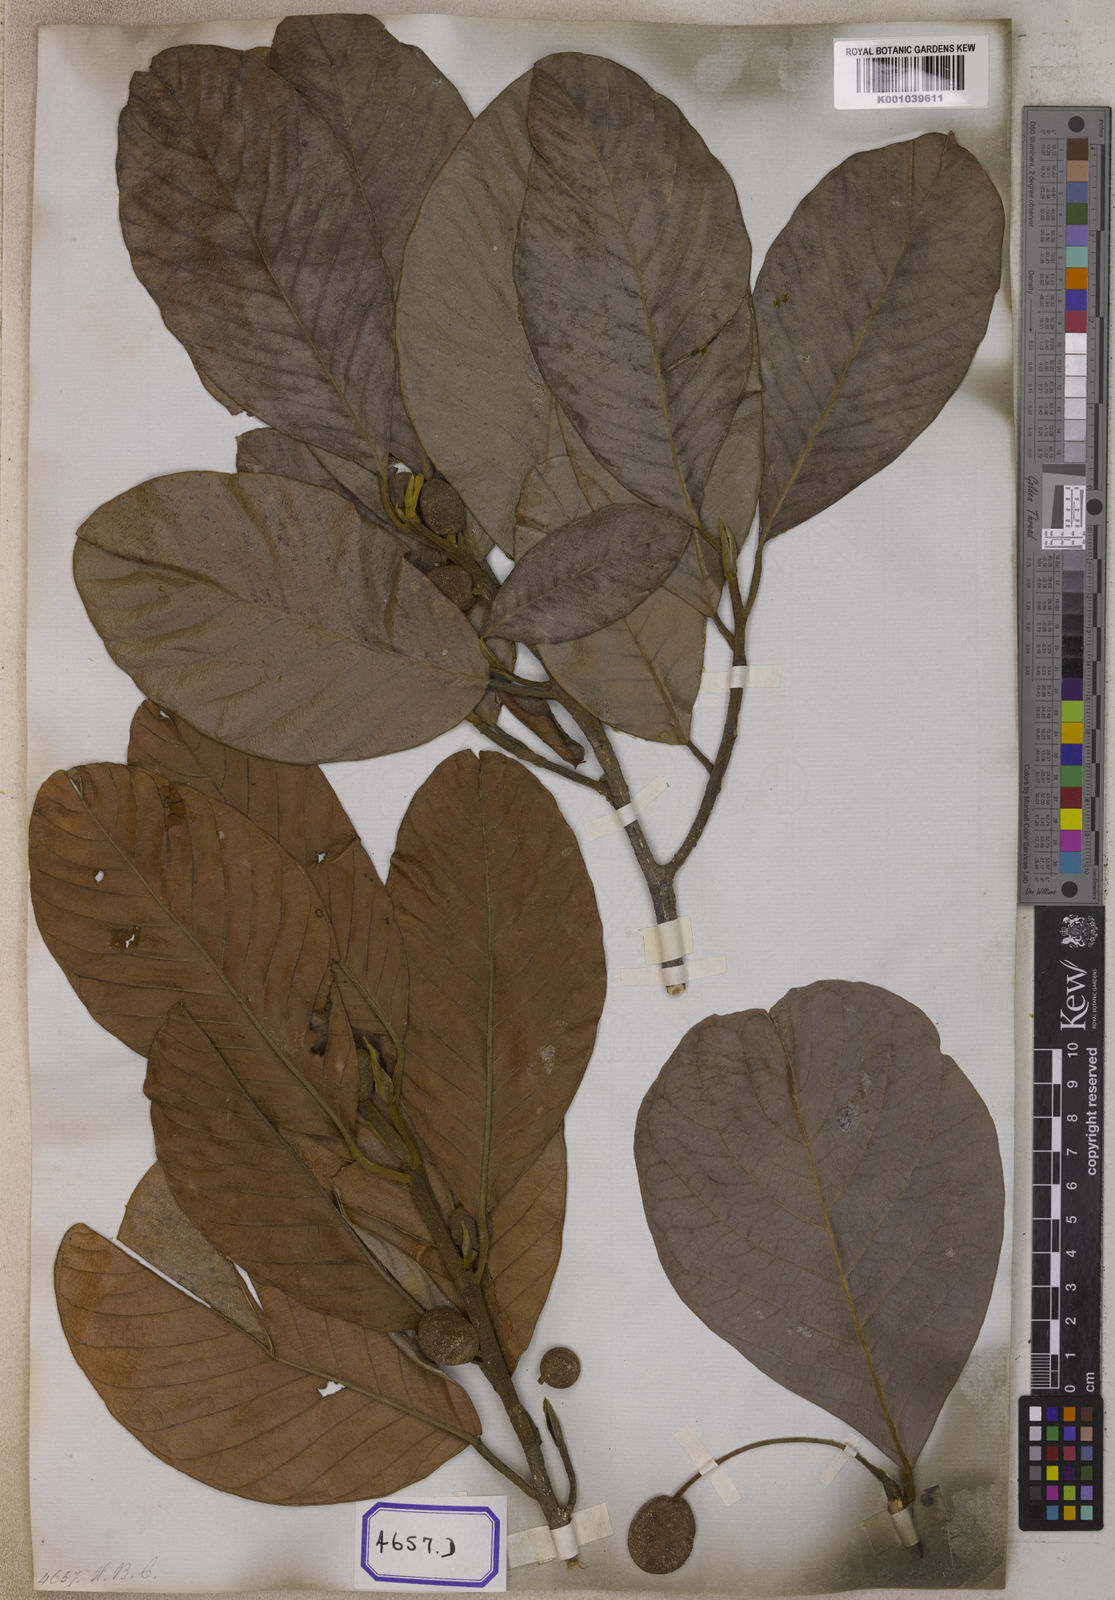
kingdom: Plantae
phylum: Tracheophyta
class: Magnoliopsida
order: Rosales
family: Moraceae
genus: Artocarpus
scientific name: Artocarpus chama
